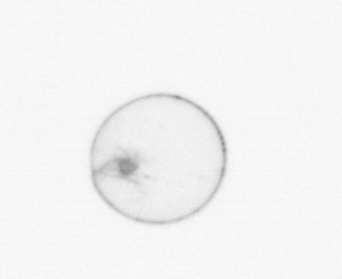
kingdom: Chromista
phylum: Myzozoa
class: Dinophyceae
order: Noctilucales
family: Noctilucaceae
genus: Noctiluca
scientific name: Noctiluca scintillans
